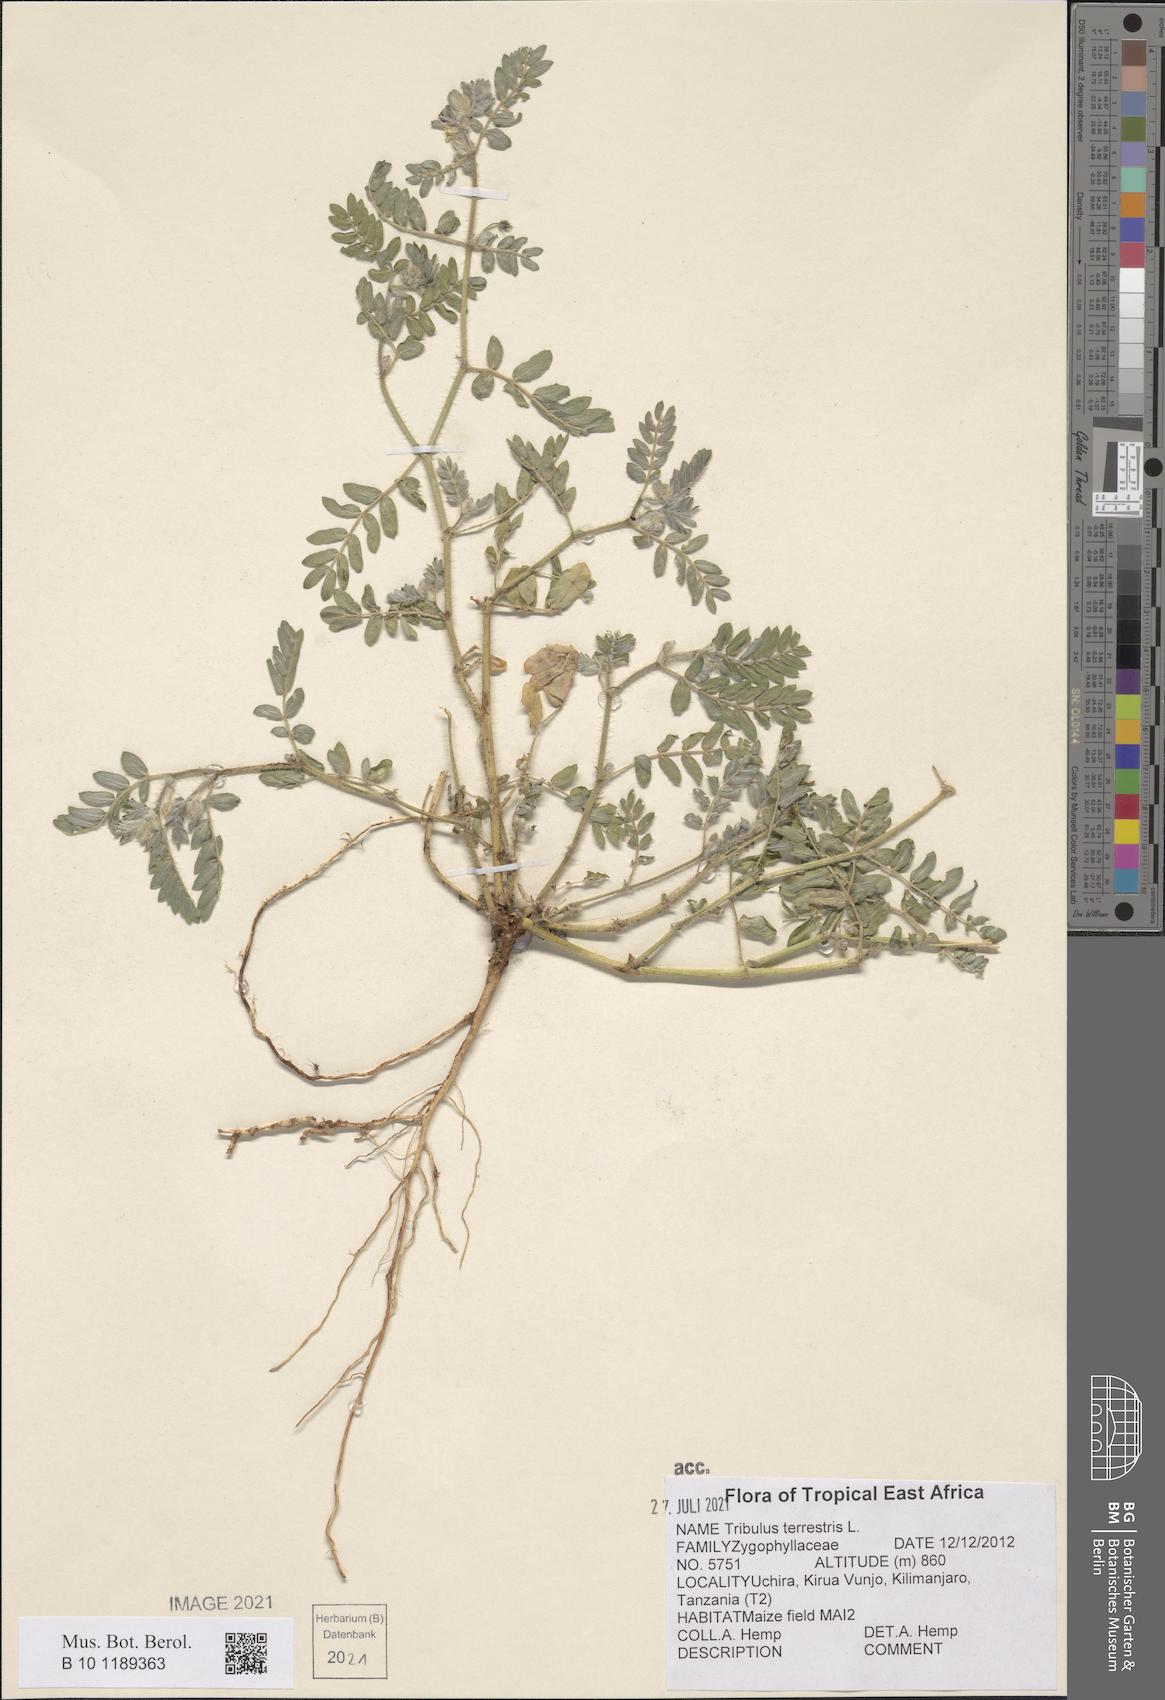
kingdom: Plantae
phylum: Tracheophyta
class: Magnoliopsida
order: Zygophyllales
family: Zygophyllaceae
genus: Tribulus
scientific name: Tribulus terrestris
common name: Puncturevine
